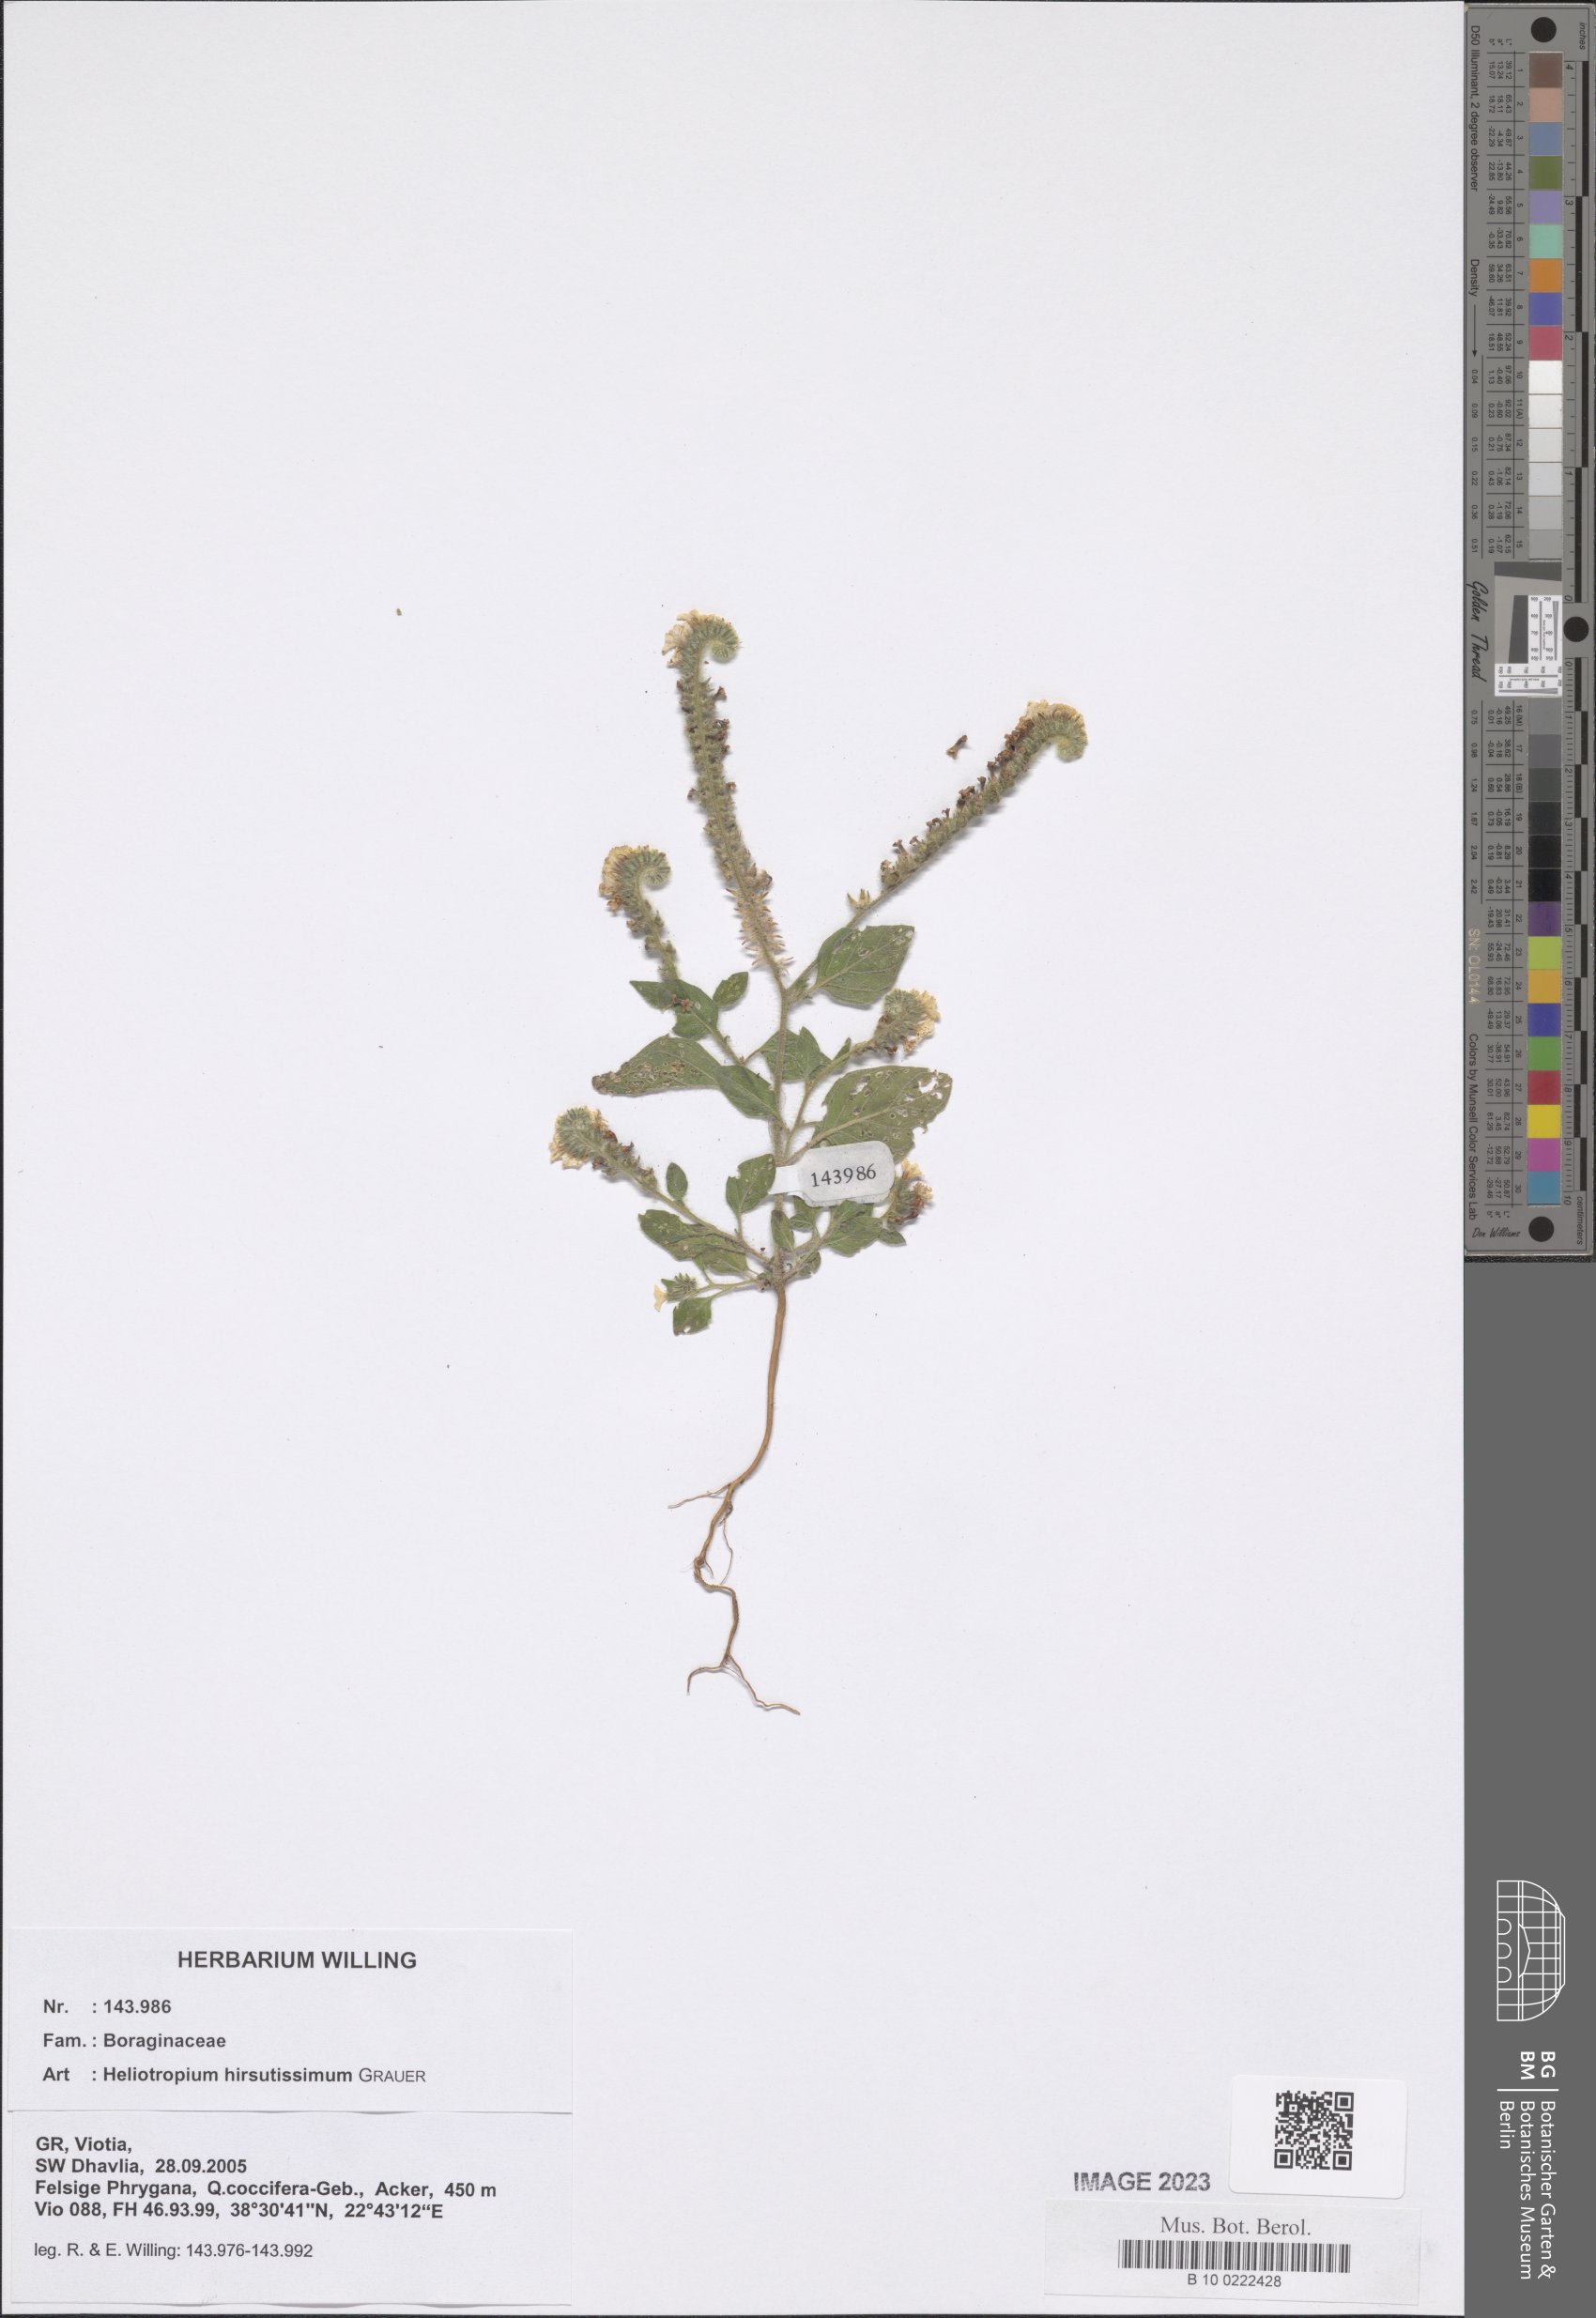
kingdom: Plantae
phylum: Tracheophyta
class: Magnoliopsida
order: Boraginales
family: Heliotropiaceae
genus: Heliotropium
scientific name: Heliotropium hirsutissimum
